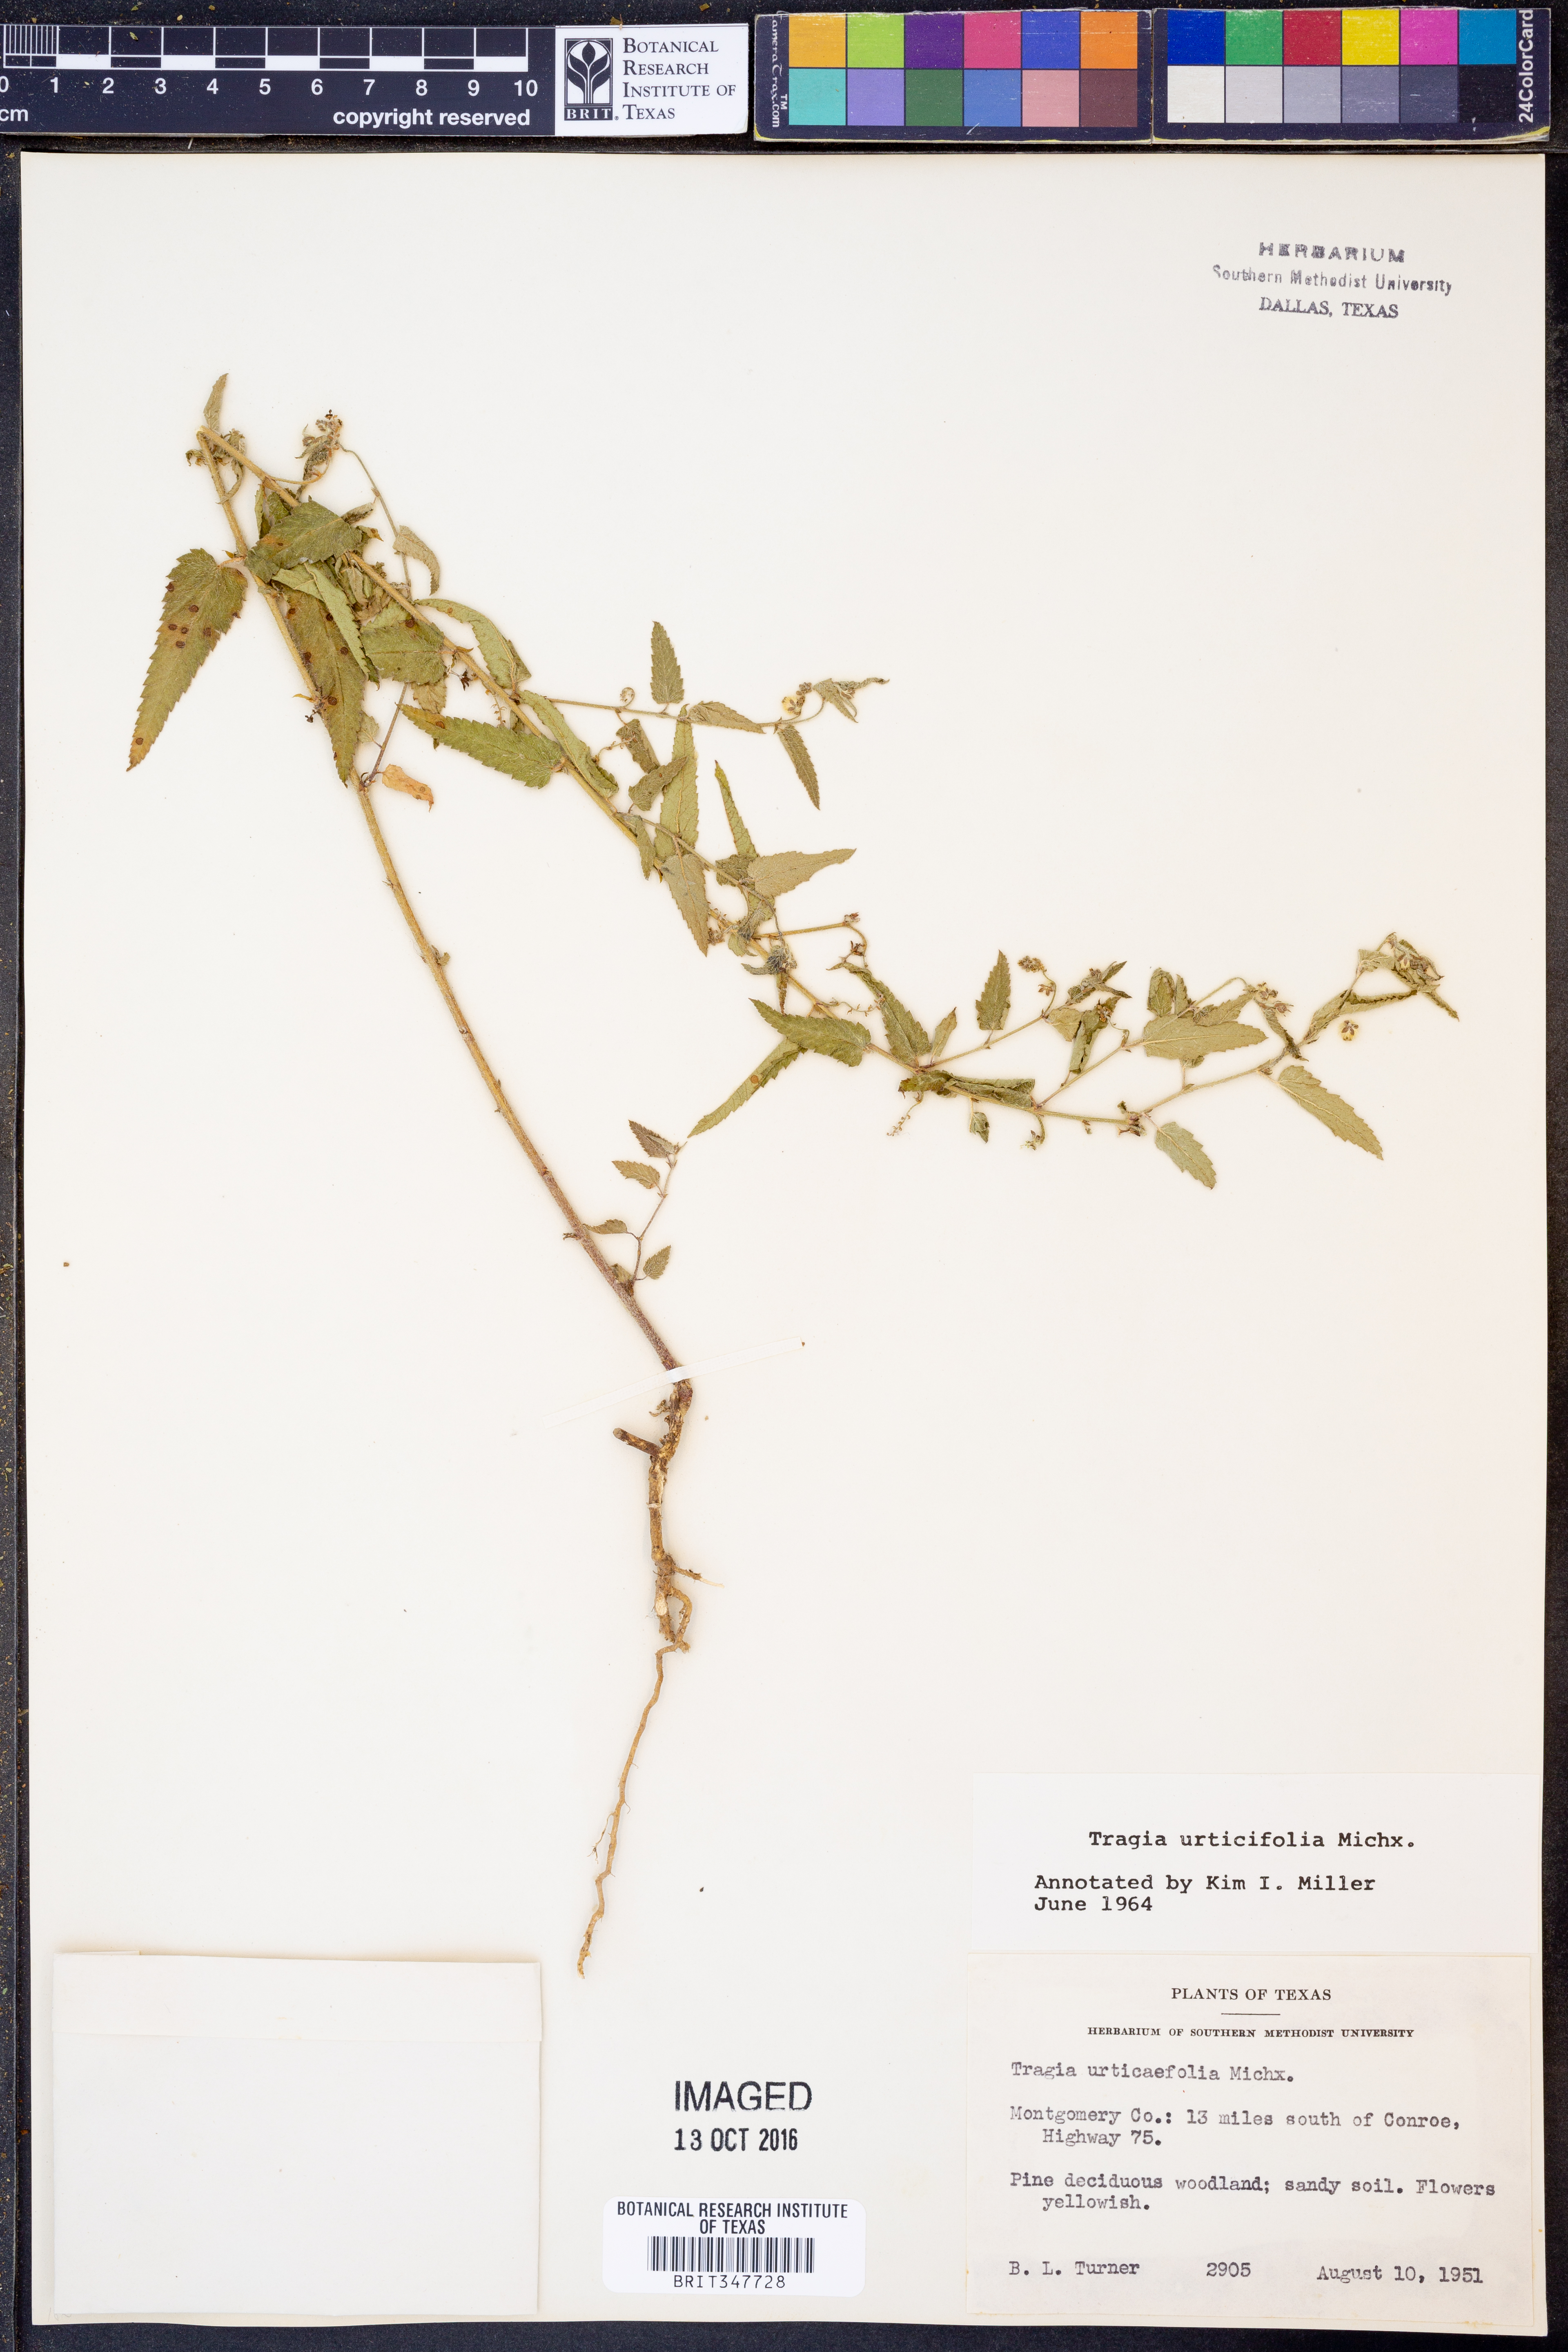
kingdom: Plantae
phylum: Tracheophyta
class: Magnoliopsida
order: Malpighiales
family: Euphorbiaceae
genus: Tragia
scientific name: Tragia urticifolia
